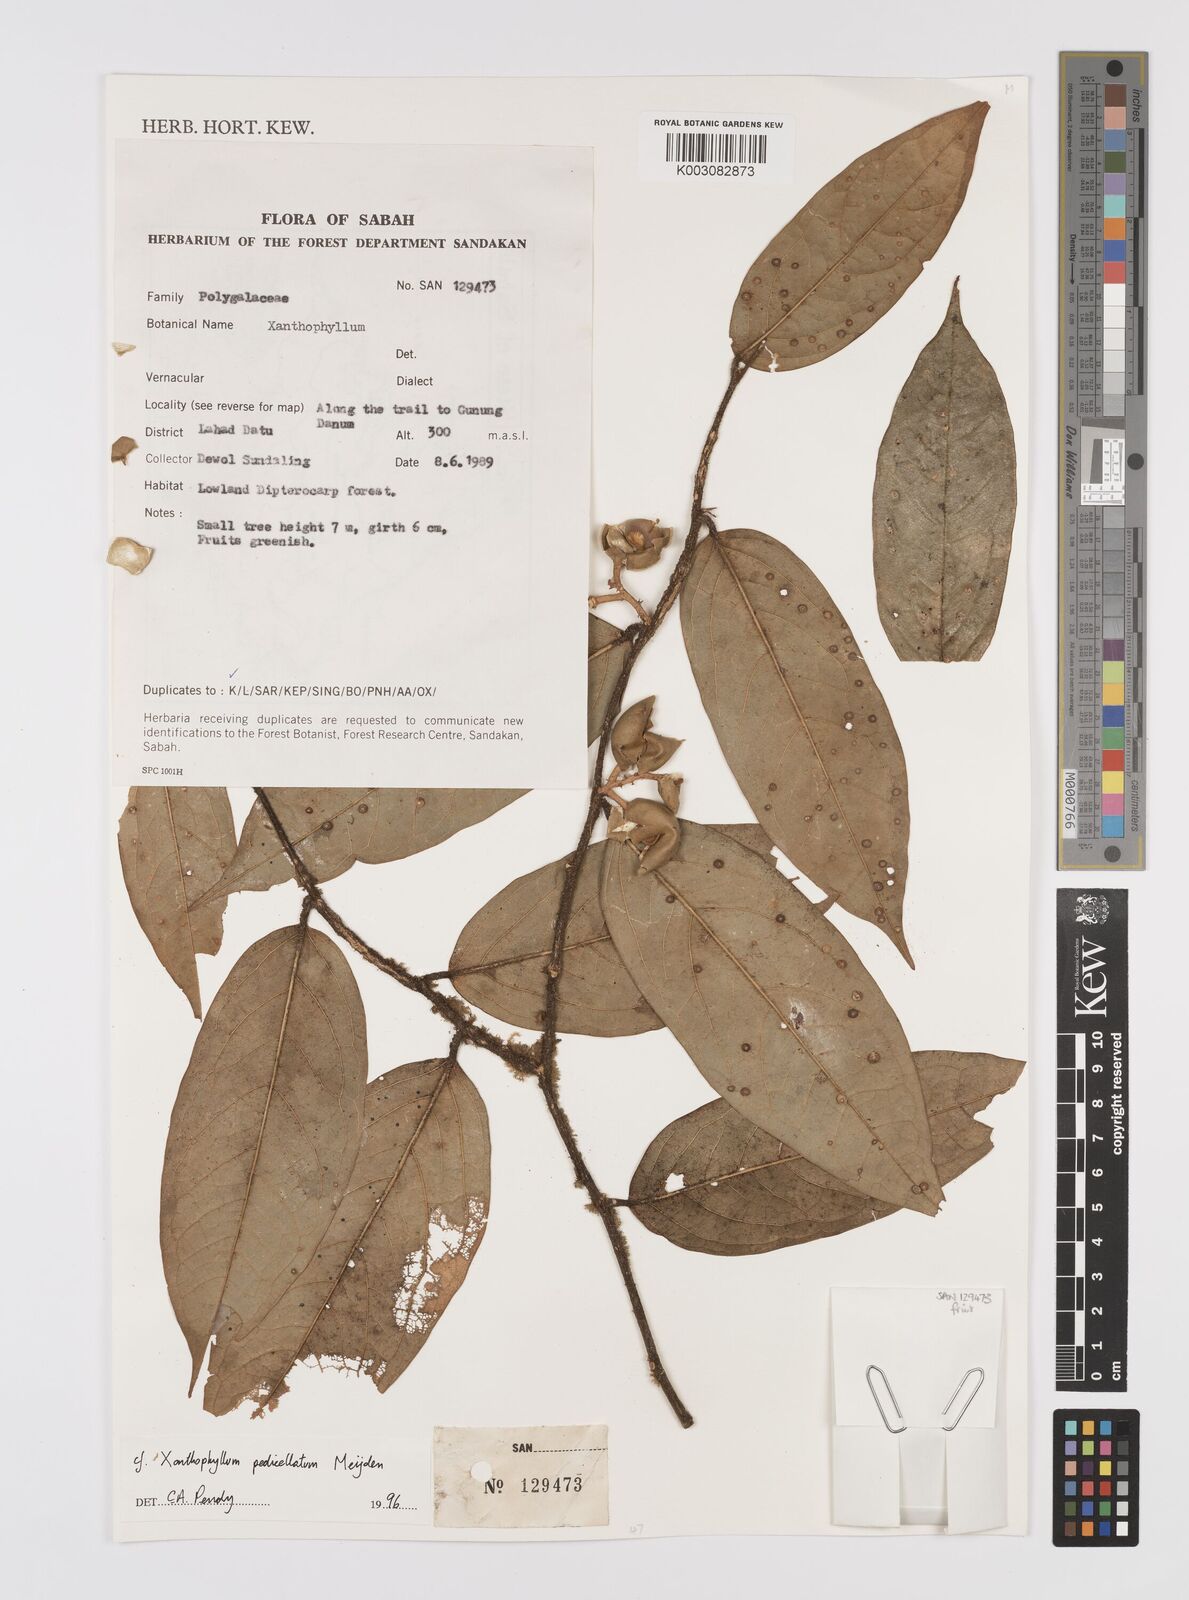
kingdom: Plantae
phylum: Tracheophyta
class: Magnoliopsida
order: Fabales
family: Polygalaceae
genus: Xanthophyllum
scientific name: Xanthophyllum pedicellatum
